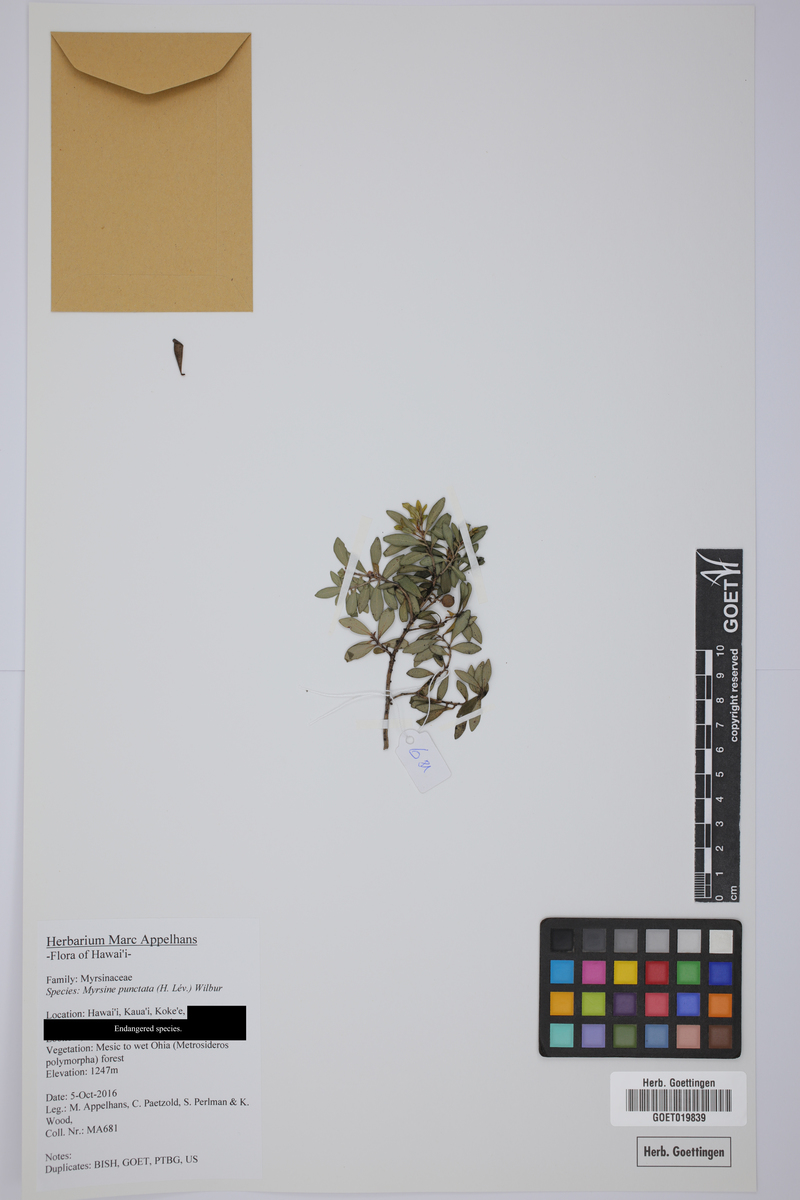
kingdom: Plantae
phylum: Tracheophyta
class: Magnoliopsida
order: Ericales
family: Primulaceae
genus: Myrsine
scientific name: Myrsine punctata
